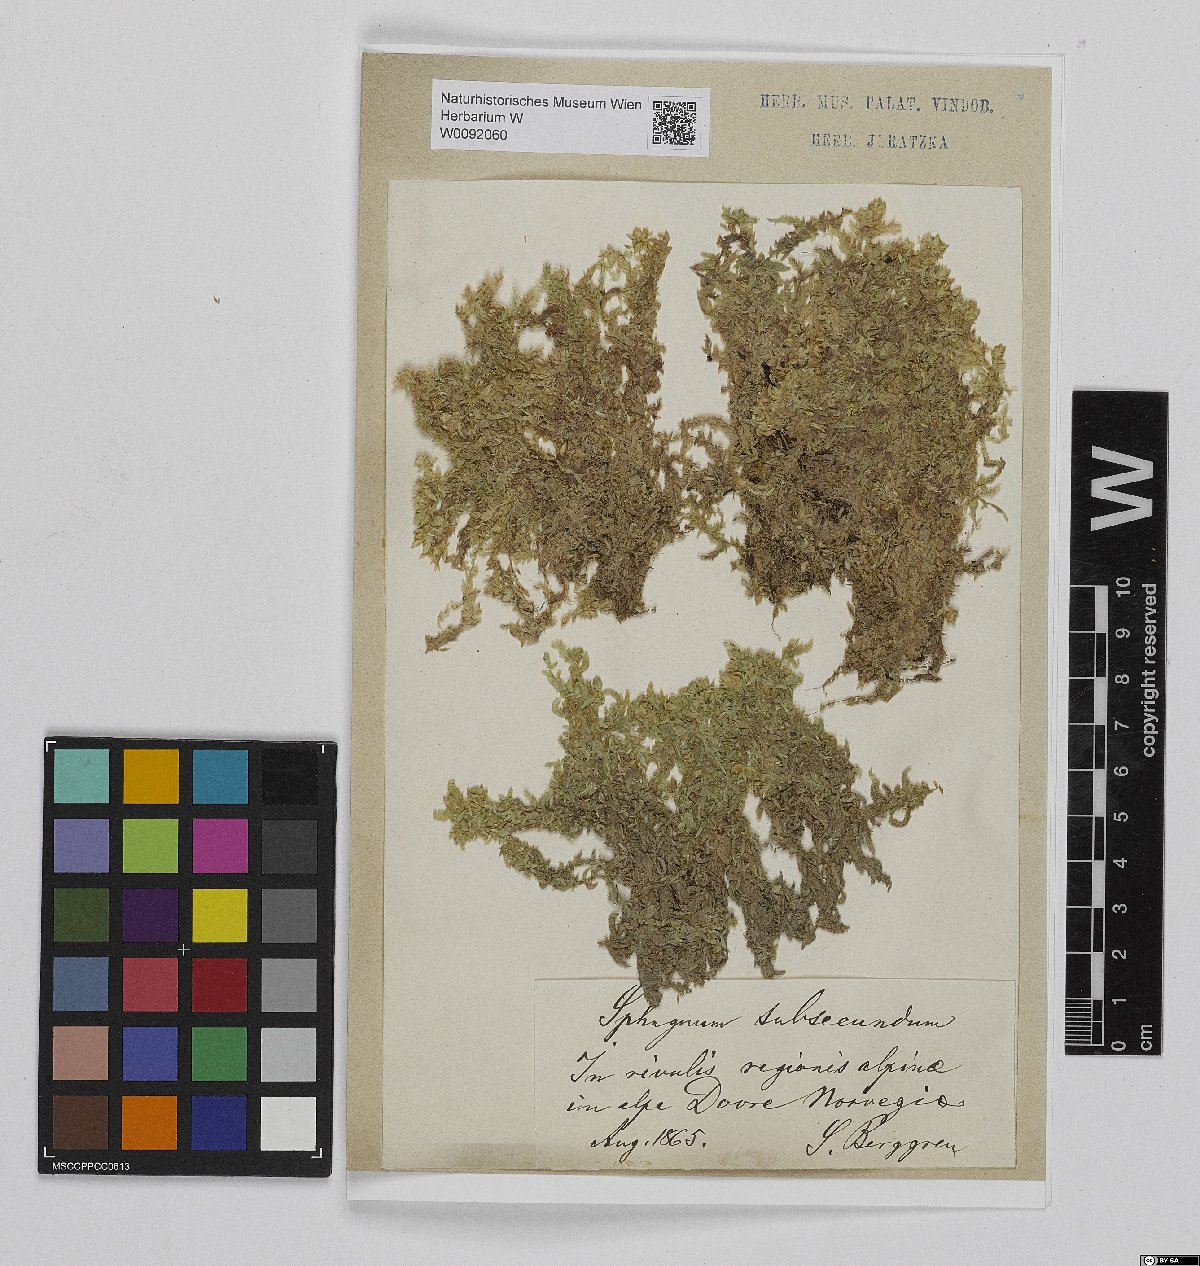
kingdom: Plantae
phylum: Bryophyta
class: Sphagnopsida
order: Sphagnales
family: Sphagnaceae
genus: Sphagnum
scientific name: Sphagnum subsecundum
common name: Orange peat moss
